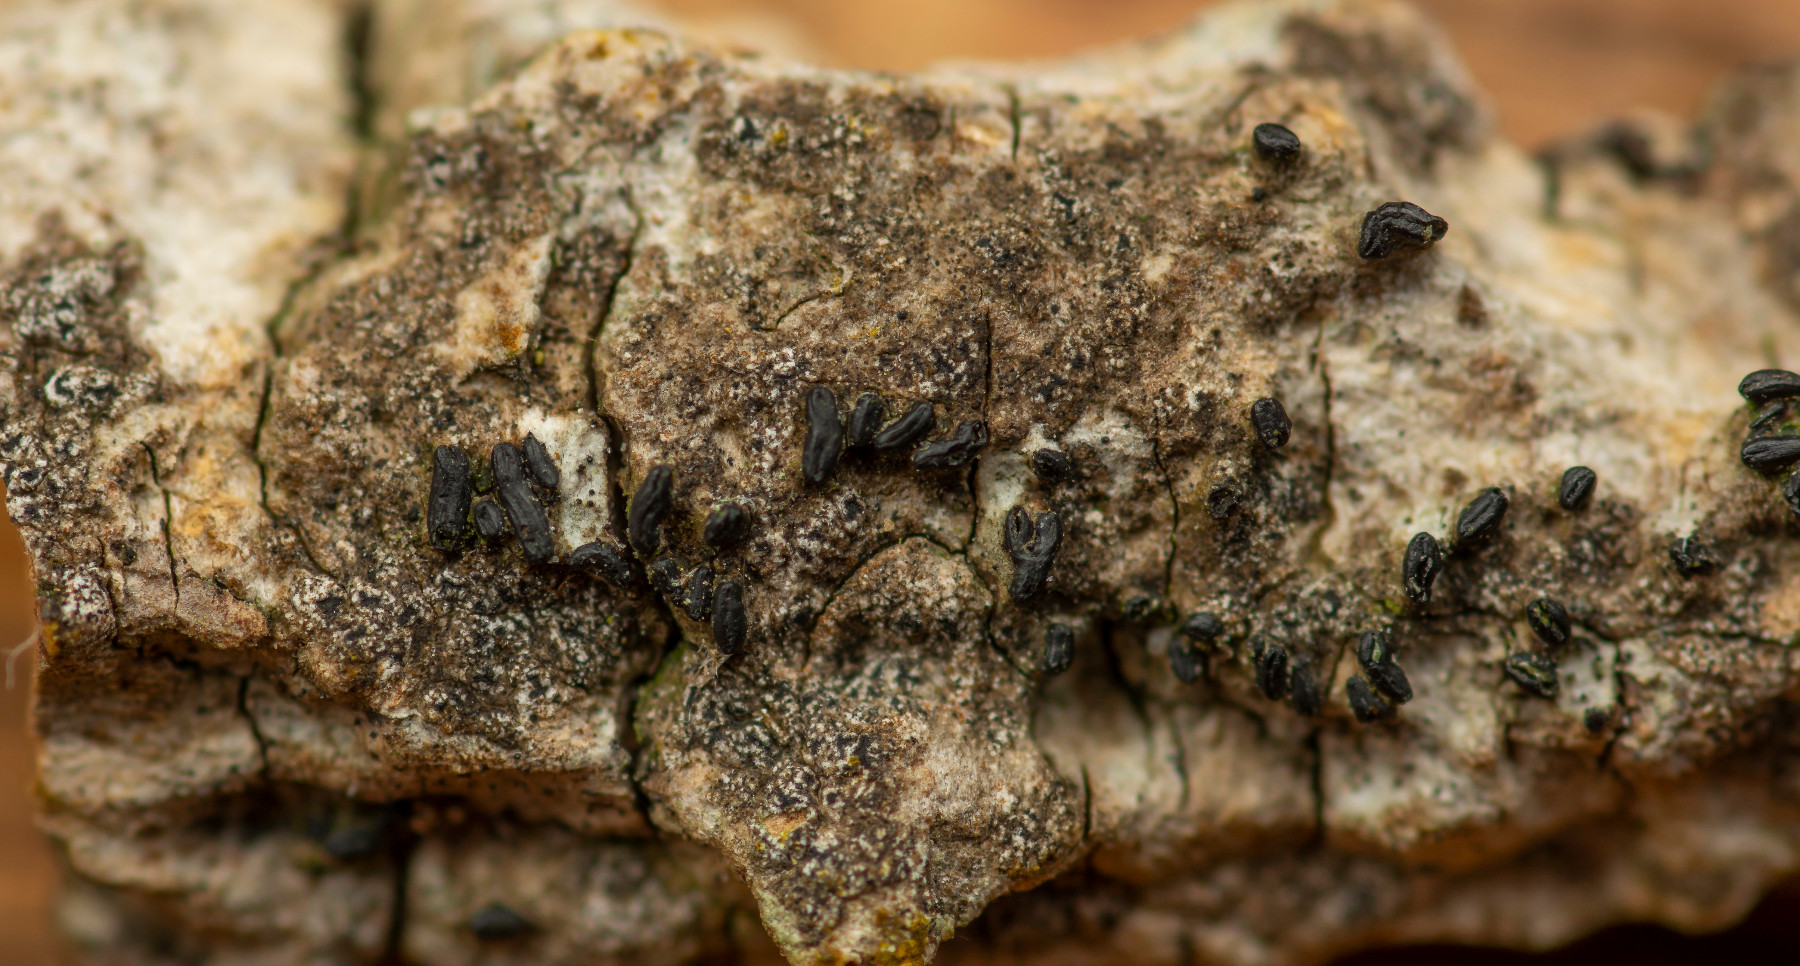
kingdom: Fungi
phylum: Ascomycota
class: Arthoniomycetes
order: Arthoniales
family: Roccellaceae
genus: Pseudoschismatomma
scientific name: Pseudoschismatomma rufescens
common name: brun bogstavlav
